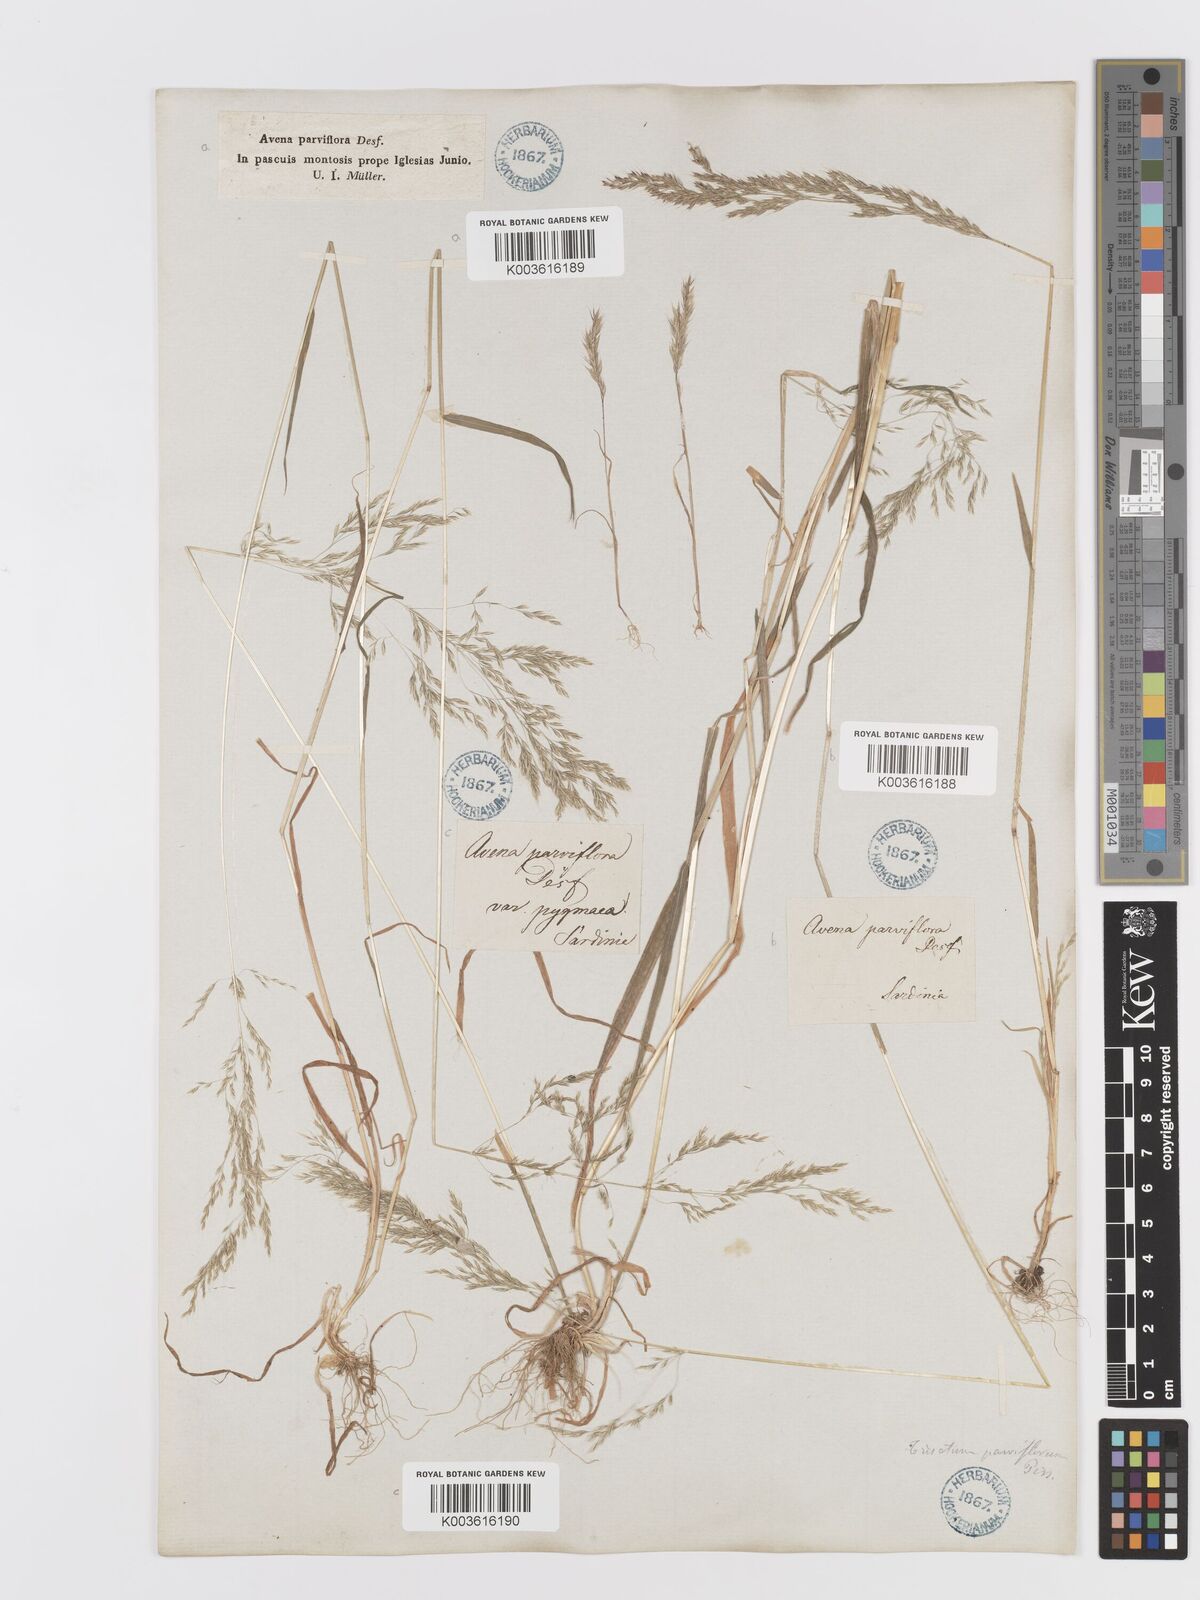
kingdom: Plantae
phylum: Tracheophyta
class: Liliopsida
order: Poales
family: Poaceae
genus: Trisetaria
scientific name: Trisetaria parviflora
